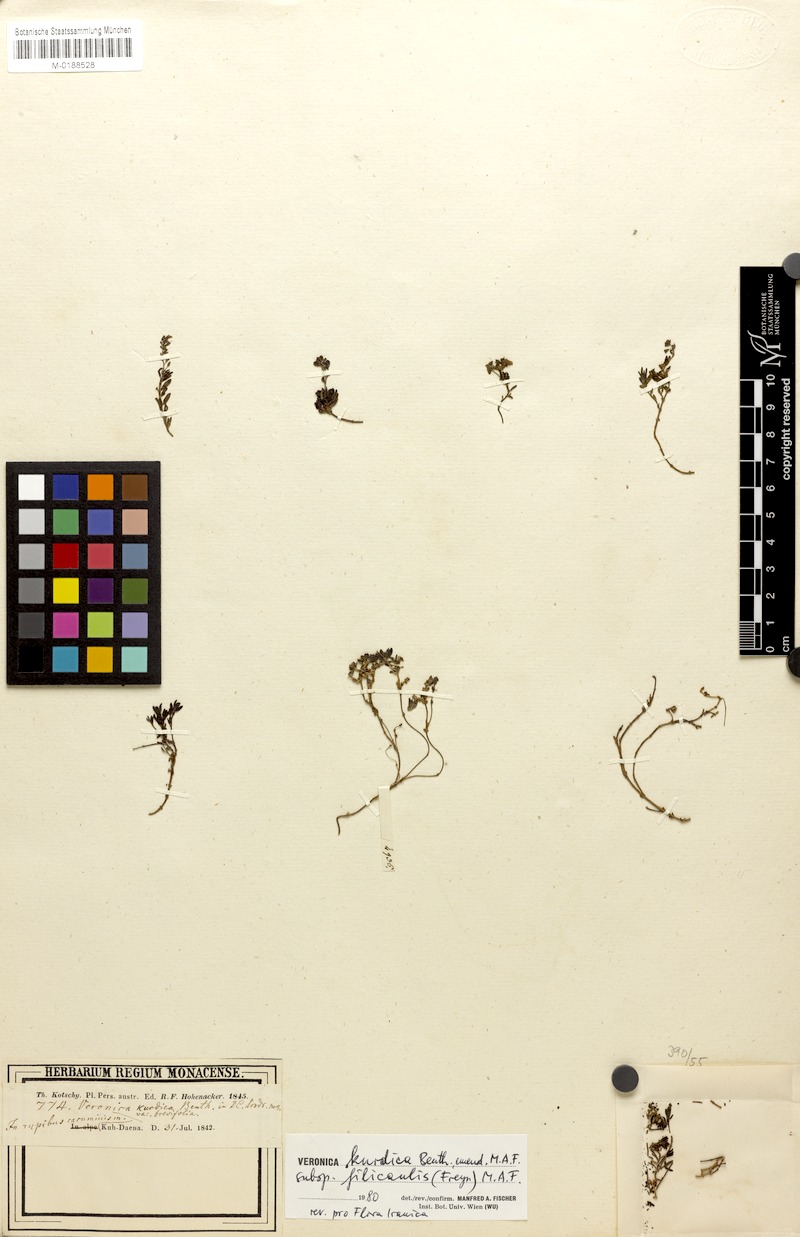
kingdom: Plantae
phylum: Tracheophyta
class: Magnoliopsida
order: Lamiales
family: Plantaginaceae
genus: Veronica
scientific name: Veronica kurdica
